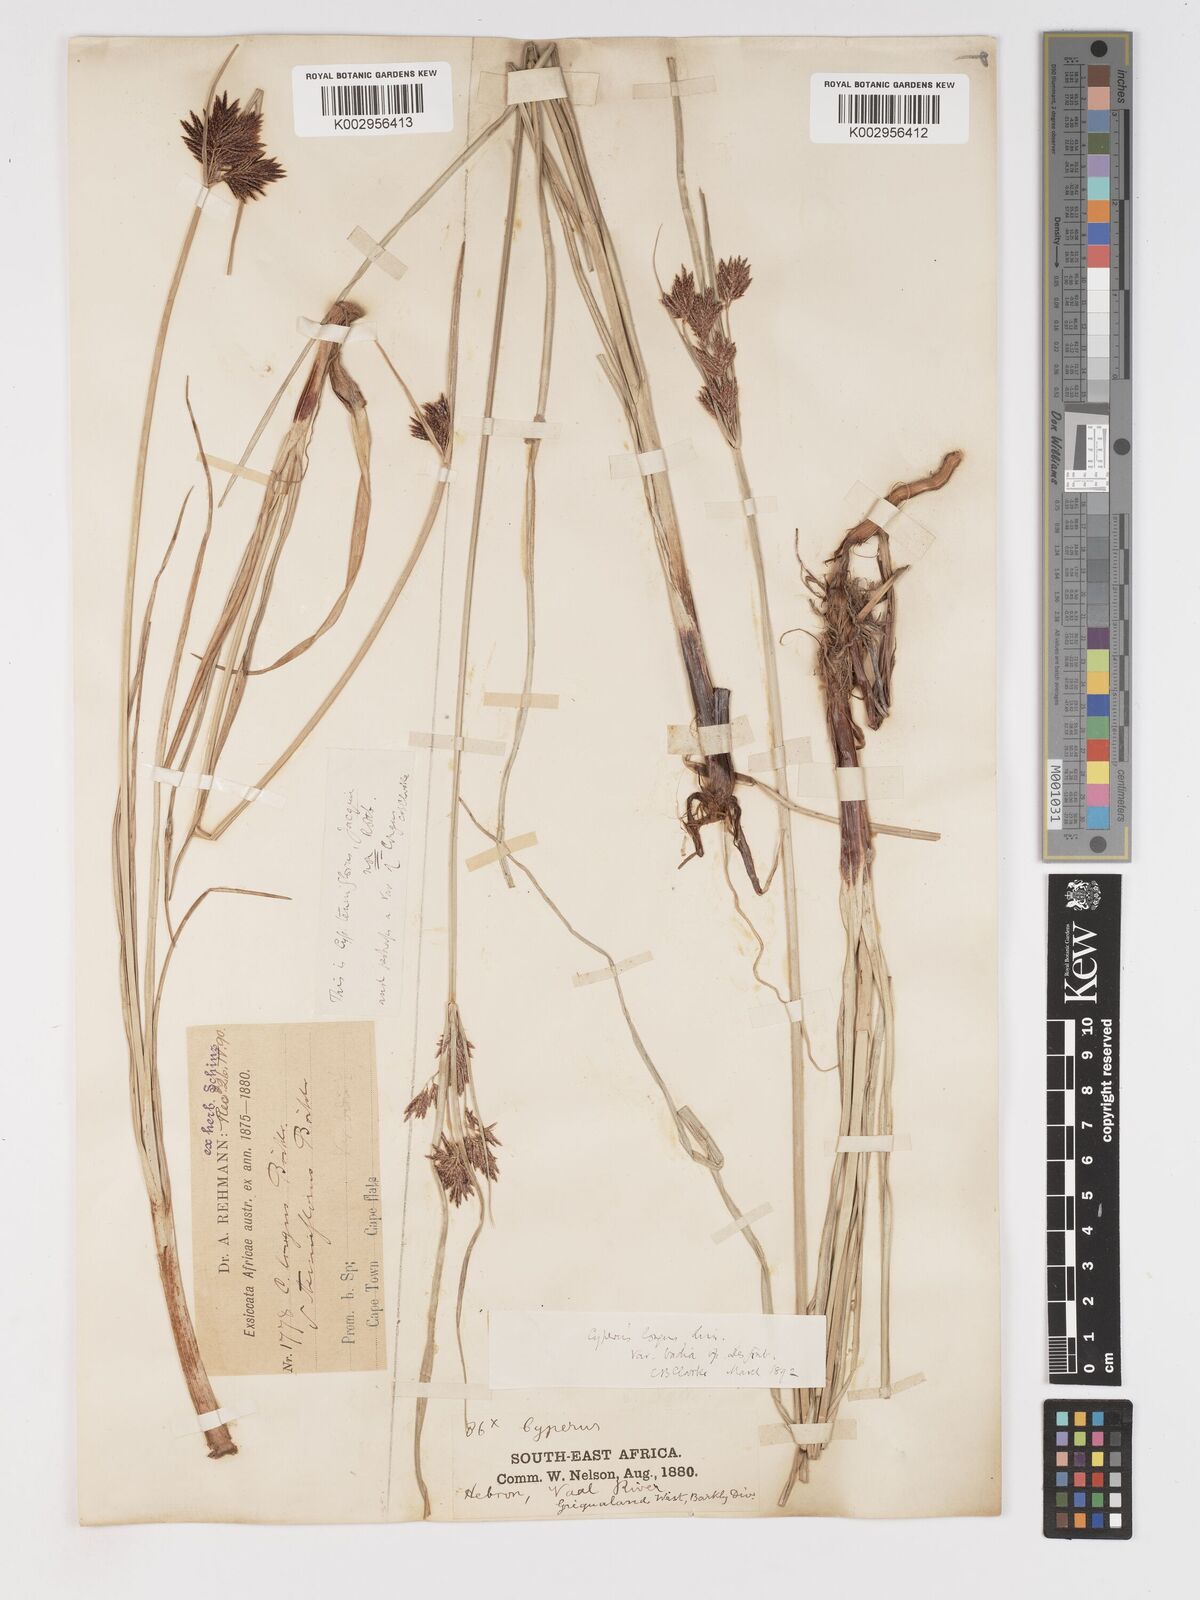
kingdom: Plantae
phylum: Tracheophyta
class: Liliopsida
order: Poales
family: Cyperaceae
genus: Cyperus
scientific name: Cyperus longus
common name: Galingale
